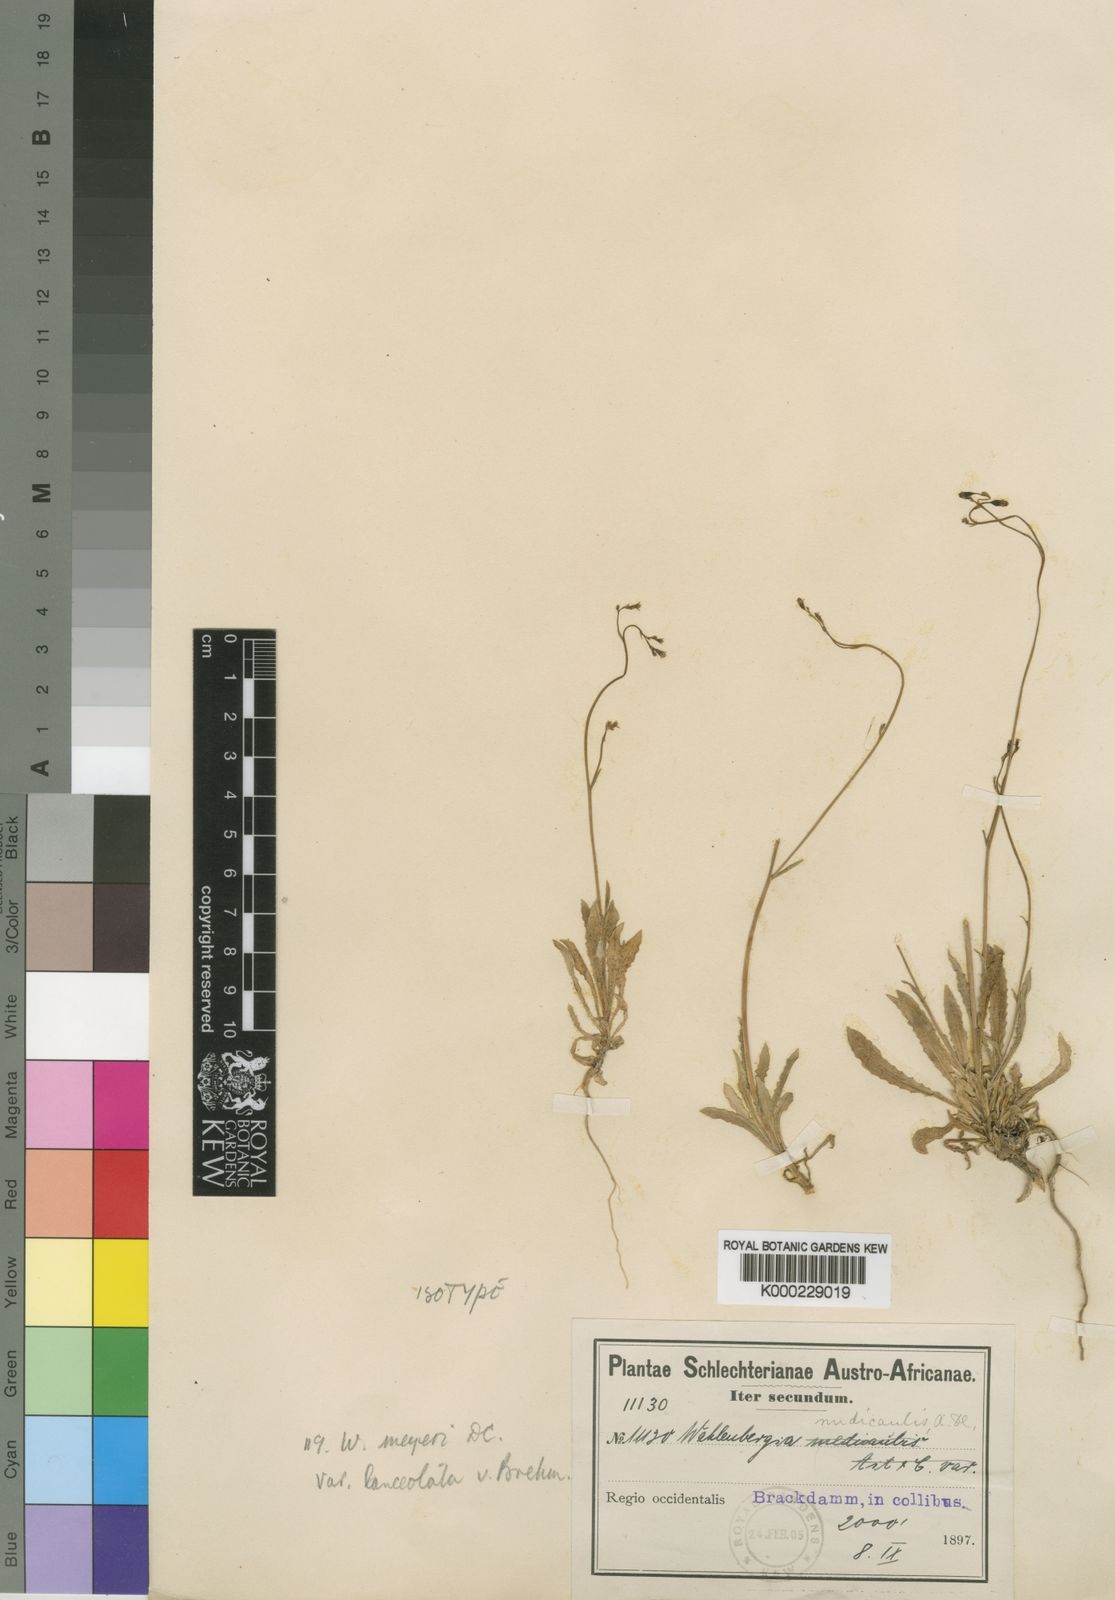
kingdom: Plantae
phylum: Tracheophyta
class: Magnoliopsida
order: Asterales
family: Campanulaceae
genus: Wahlenbergia
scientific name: Wahlenbergia meyeri
